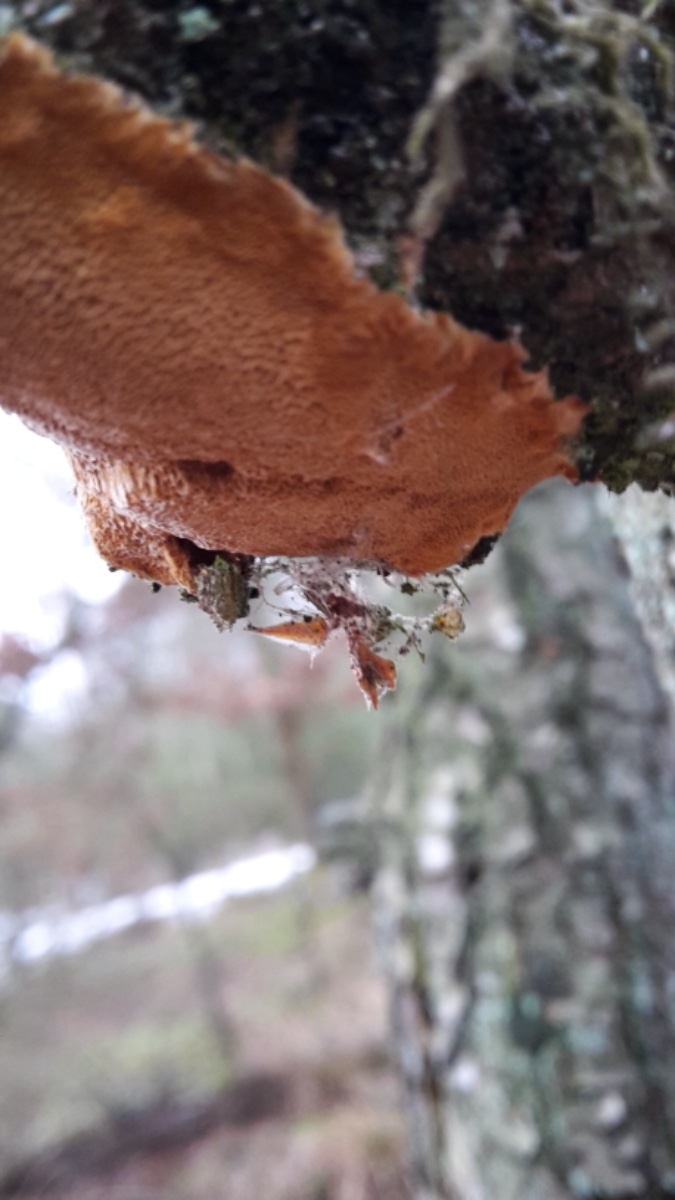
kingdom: Fungi
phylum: Basidiomycota
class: Agaricomycetes
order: Hymenochaetales
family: Hymenochaetaceae
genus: Fuscoporia
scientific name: Fuscoporia ferrea
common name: skorpe-ildporesvamp
